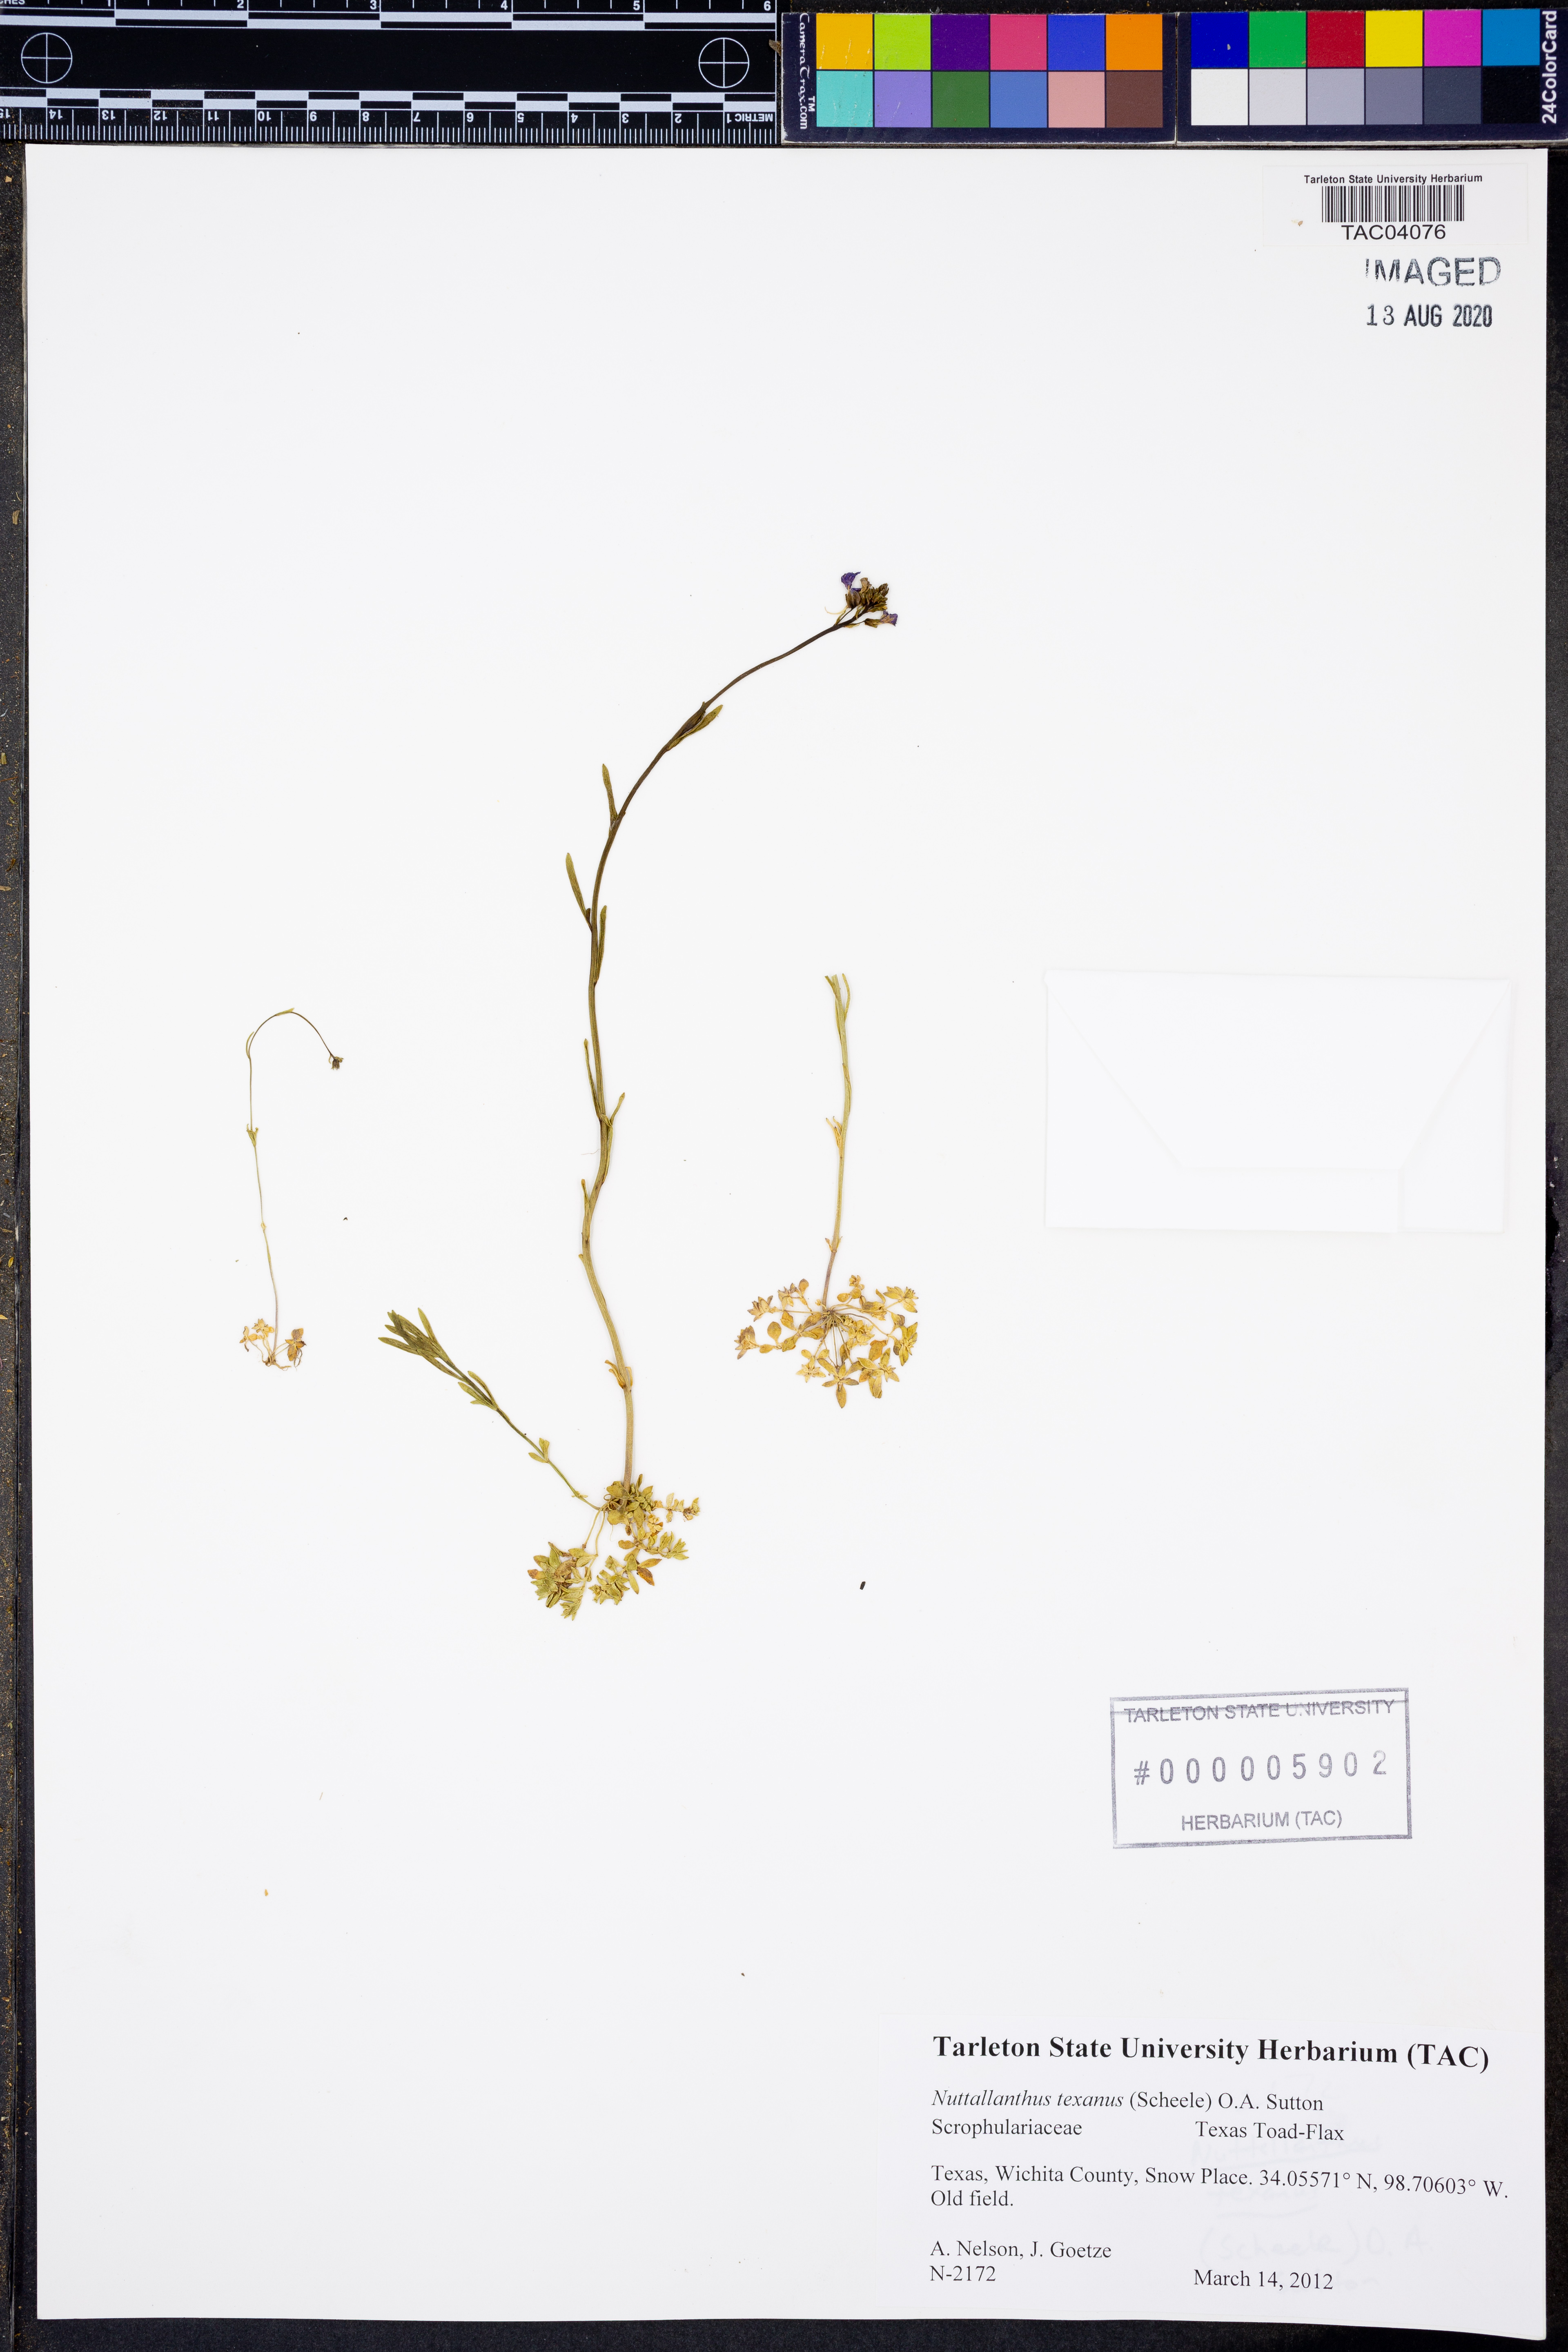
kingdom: Plantae
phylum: Tracheophyta
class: Magnoliopsida
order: Lamiales
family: Plantaginaceae
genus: Nuttallanthus
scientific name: Nuttallanthus texanus
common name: Texas toadflax
